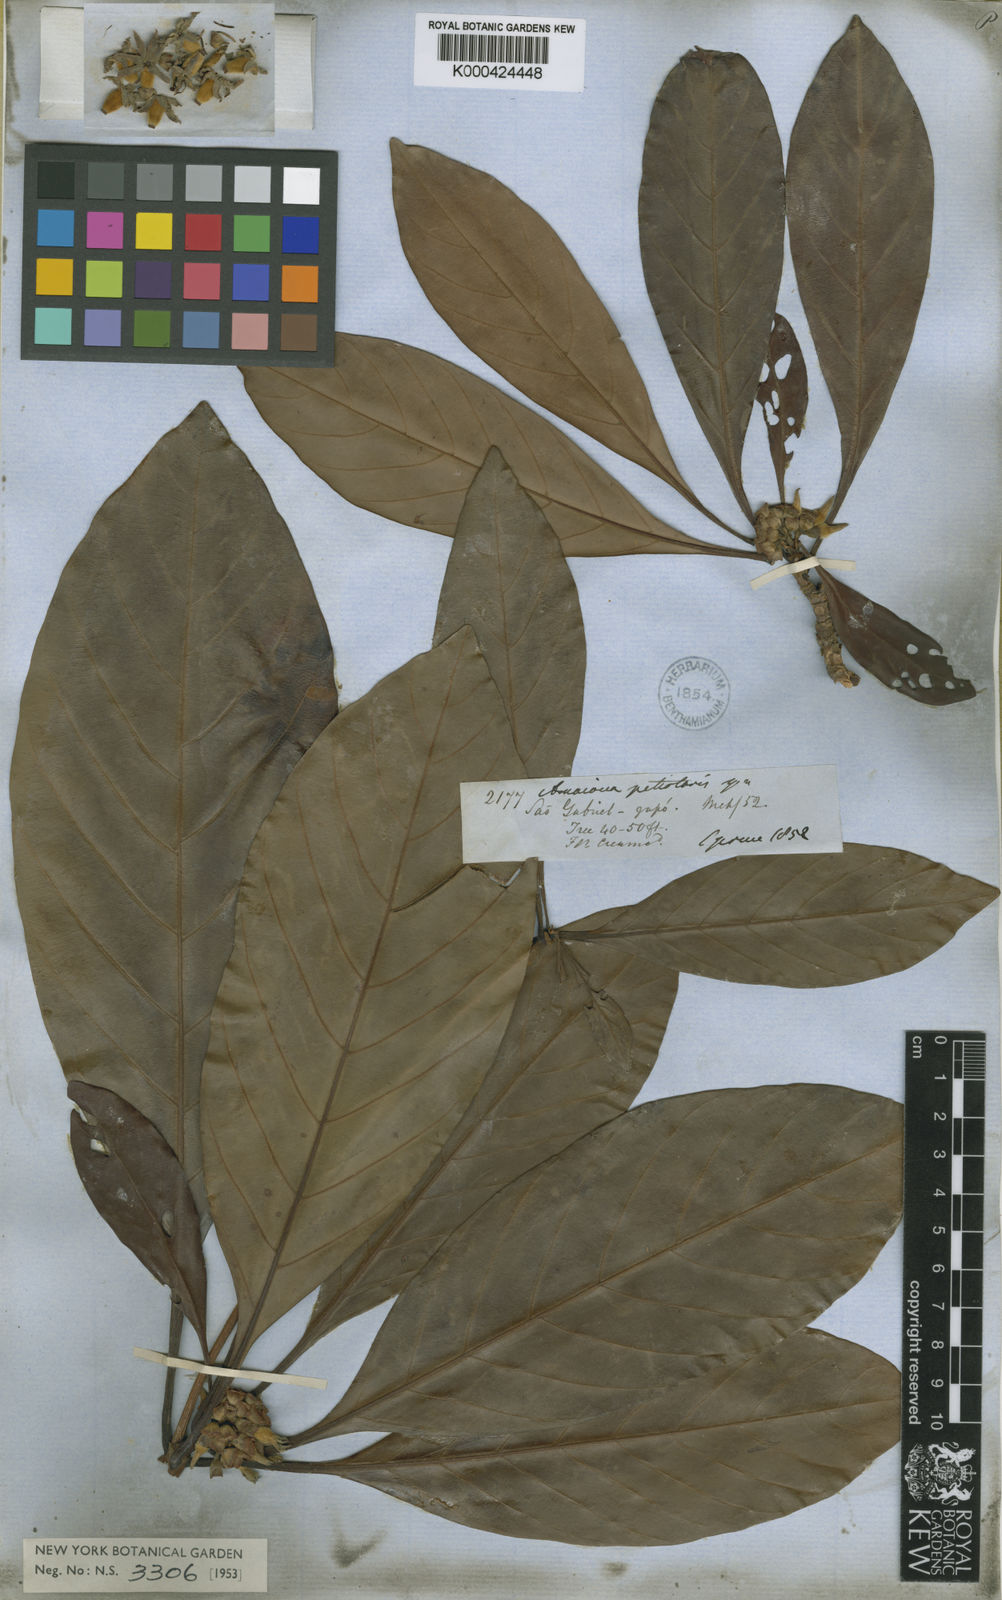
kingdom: Plantae
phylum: Tracheophyta
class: Magnoliopsida
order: Gentianales
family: Rubiaceae
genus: Duroia
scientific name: Duroia petiolaris
